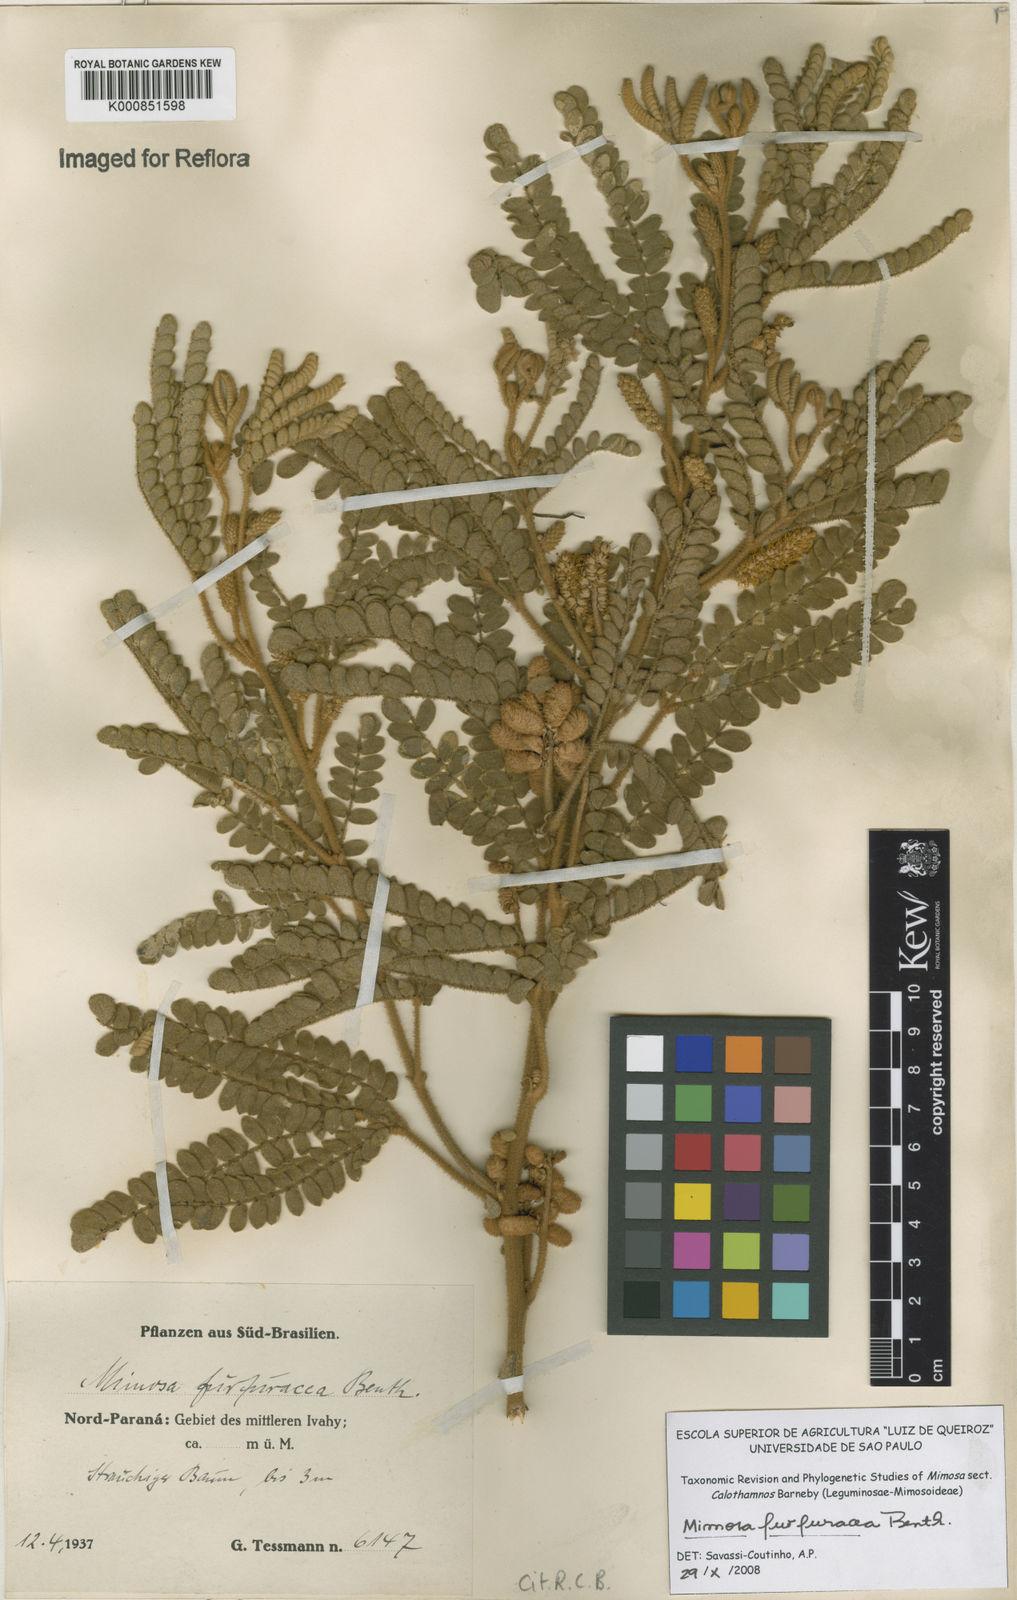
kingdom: Plantae
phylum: Tracheophyta
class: Magnoliopsida
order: Fabales
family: Fabaceae
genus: Mimosa
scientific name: Mimosa furfuracea
